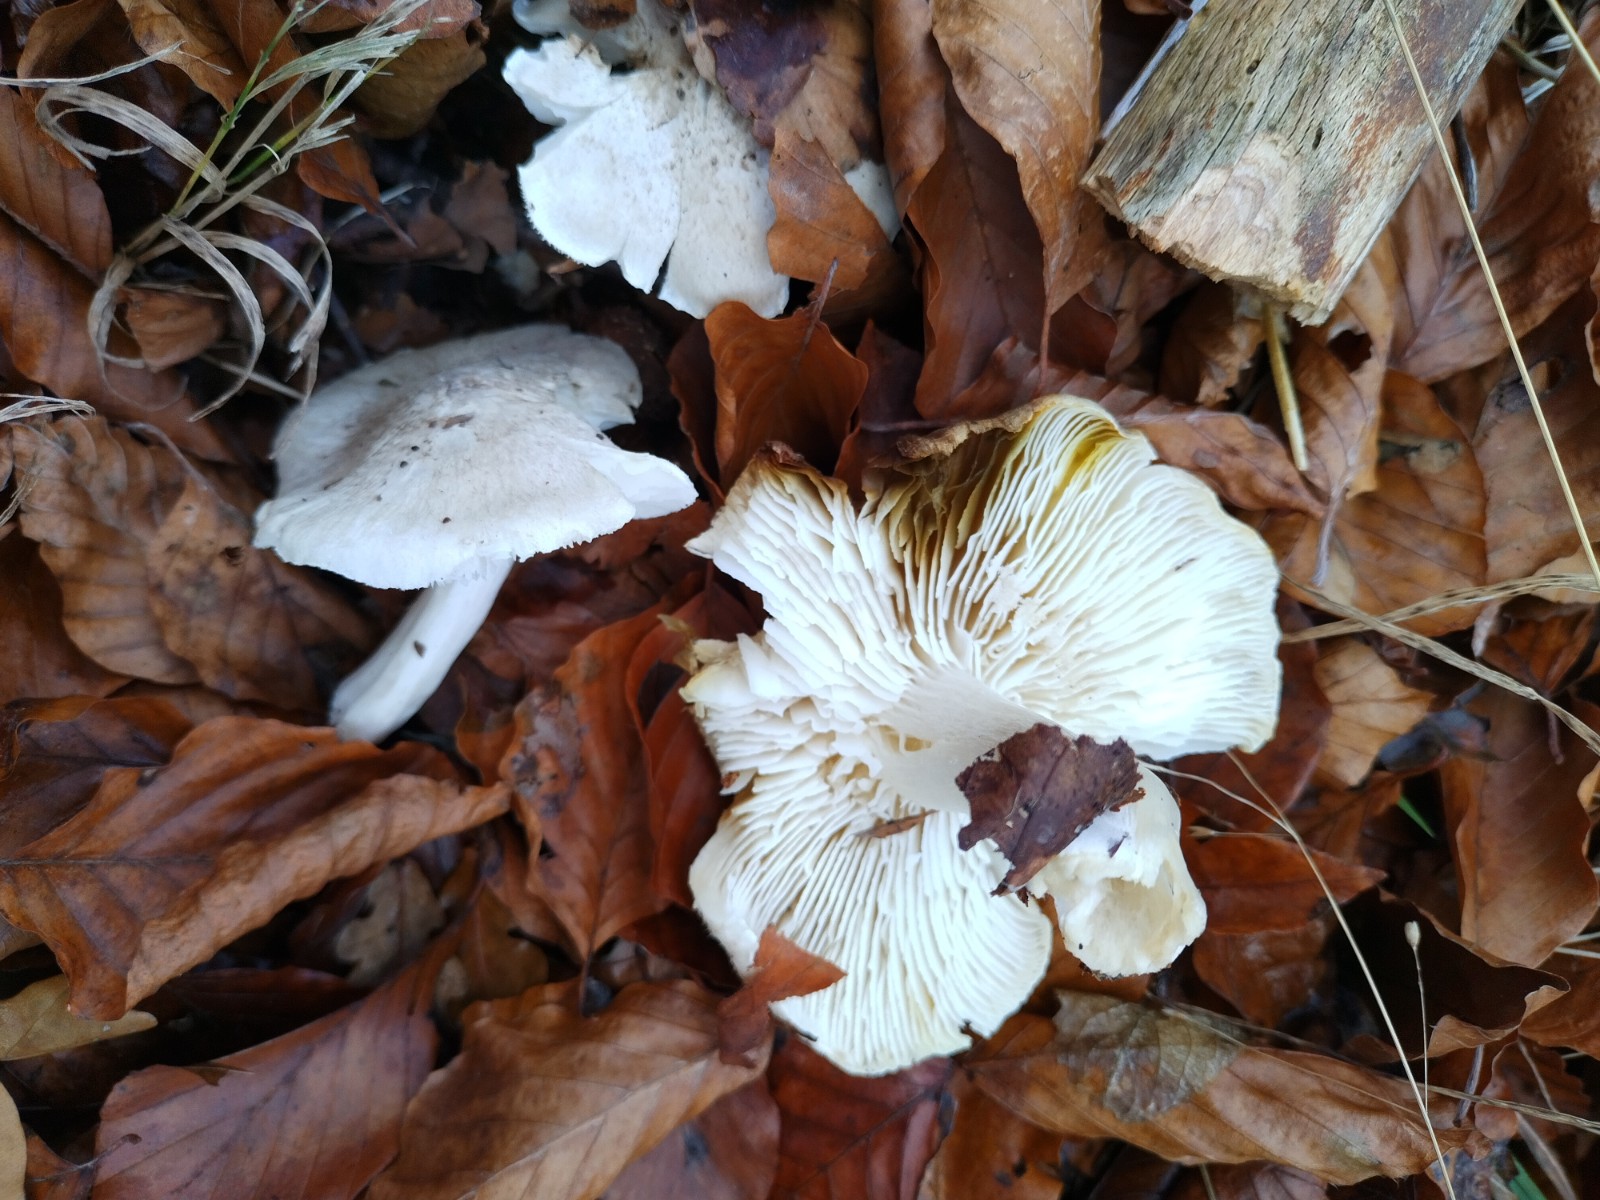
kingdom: Fungi
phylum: Basidiomycota
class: Agaricomycetes
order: Agaricales
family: Tricholomataceae
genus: Tricholoma
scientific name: Tricholoma scalpturatum
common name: gulplettet ridderhat
